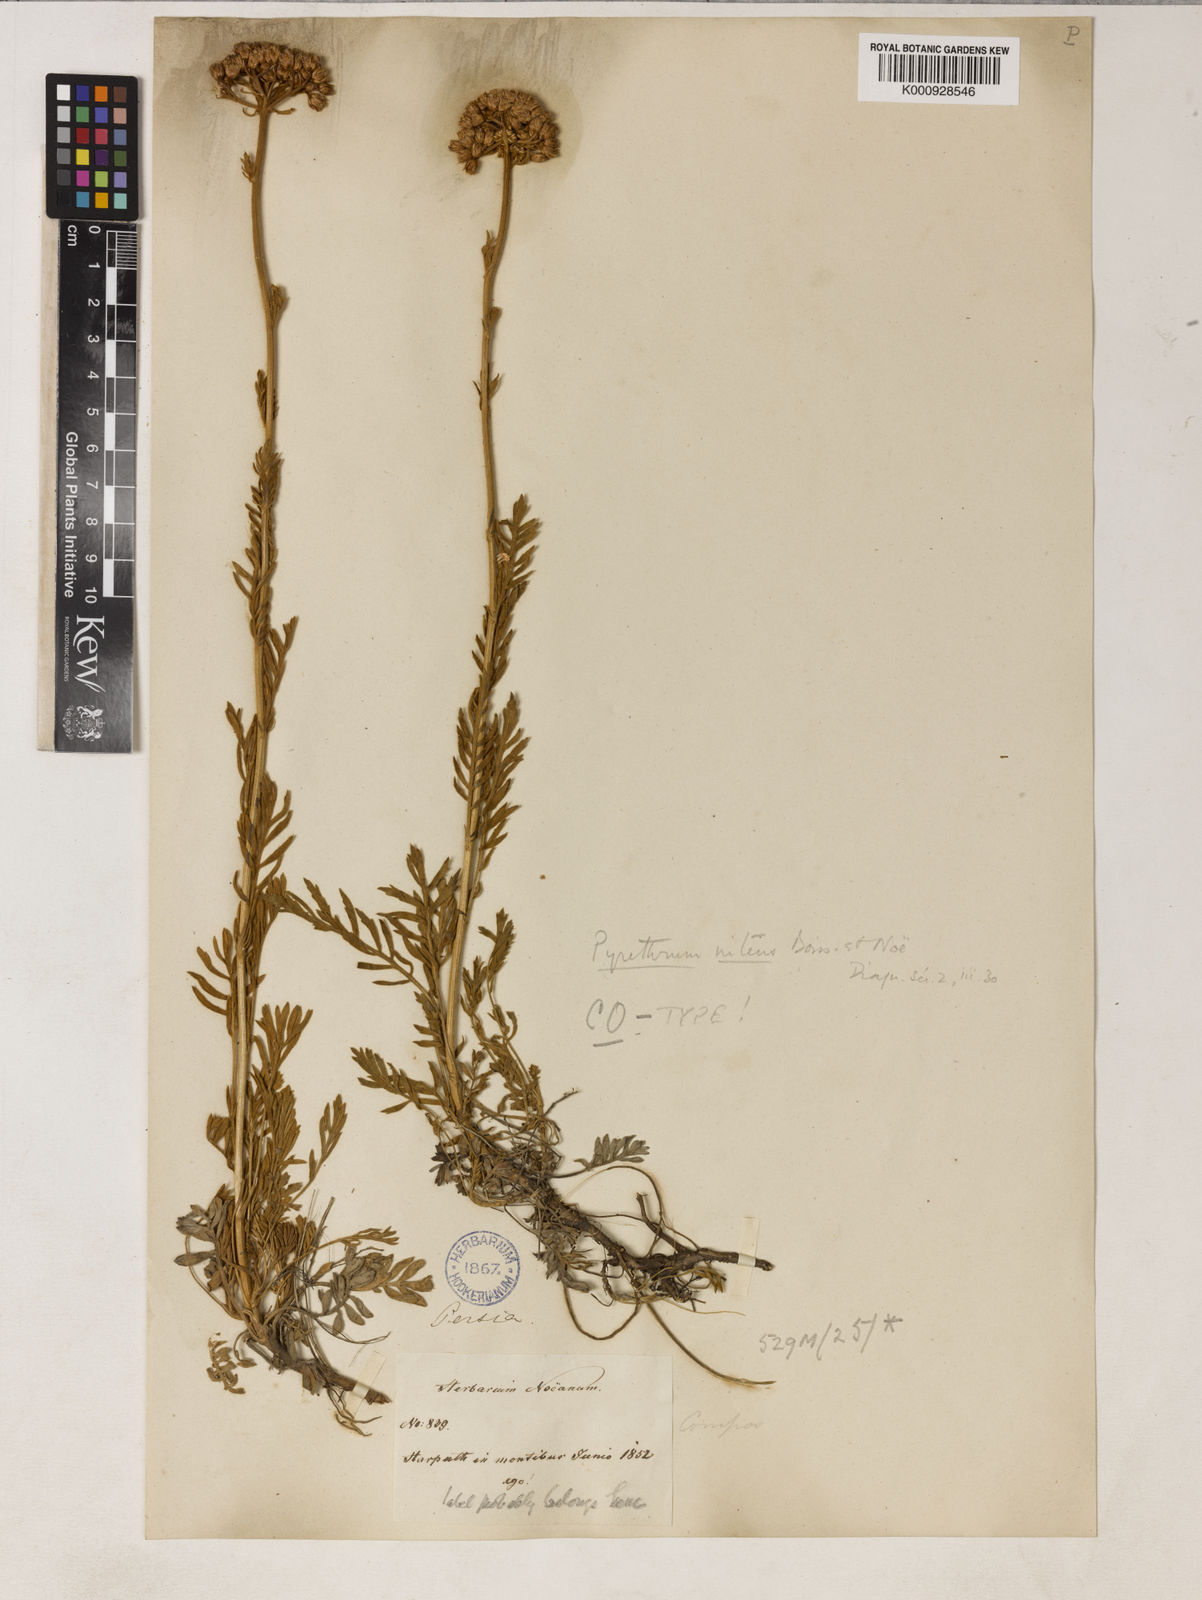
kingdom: Plantae
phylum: Tracheophyta
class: Magnoliopsida
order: Asterales
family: Asteraceae
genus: Tanacetum
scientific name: Tanacetum
